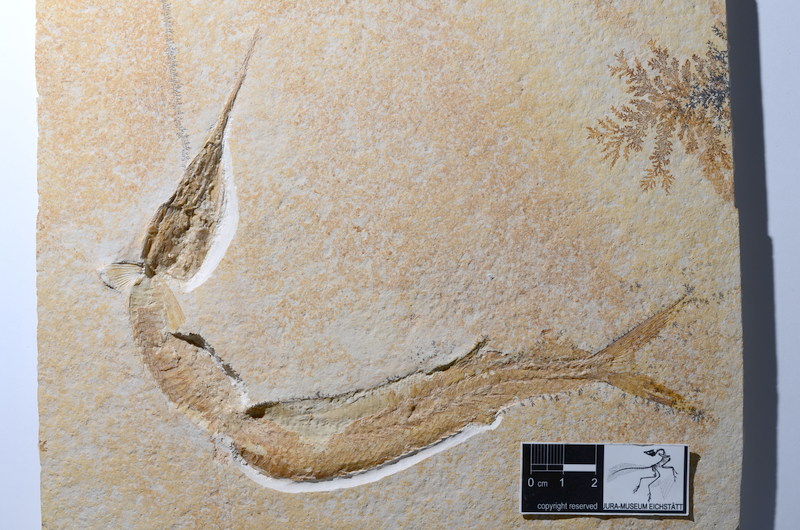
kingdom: Animalia
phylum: Chordata
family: Aspidorhynchidae
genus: Aspidorhynchus
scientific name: Aspidorhynchus acutirostris
